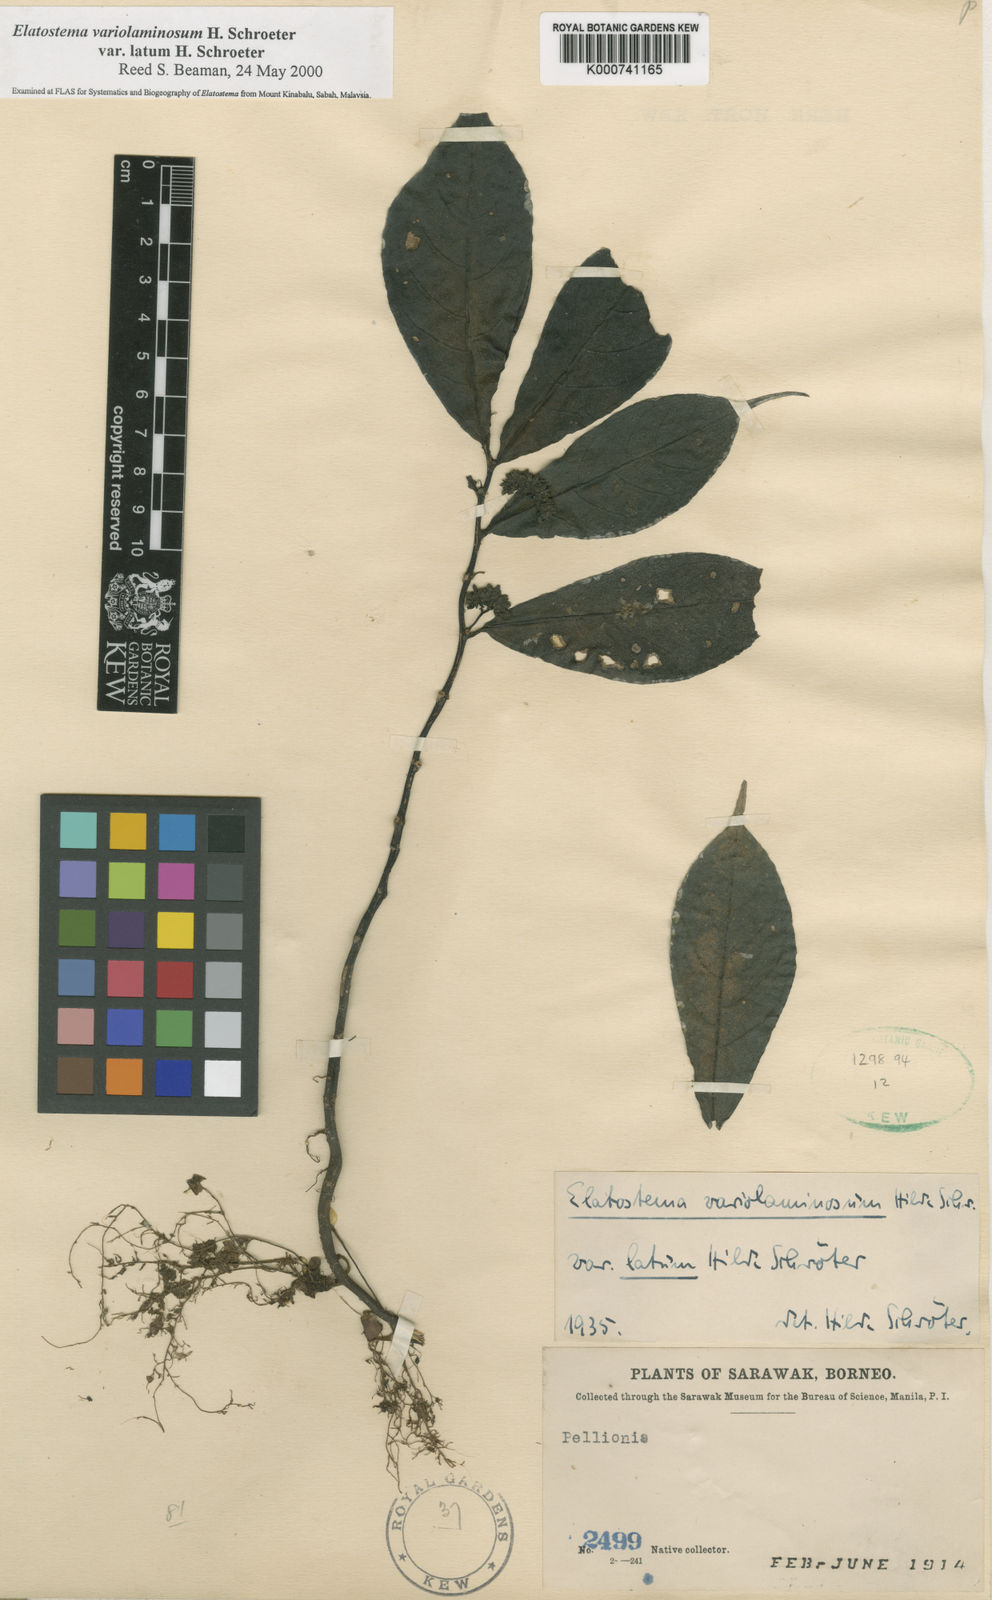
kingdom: Plantae
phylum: Tracheophyta
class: Magnoliopsida
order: Rosales
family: Urticaceae
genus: Elatostema
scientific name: Elatostema variolaminosum
